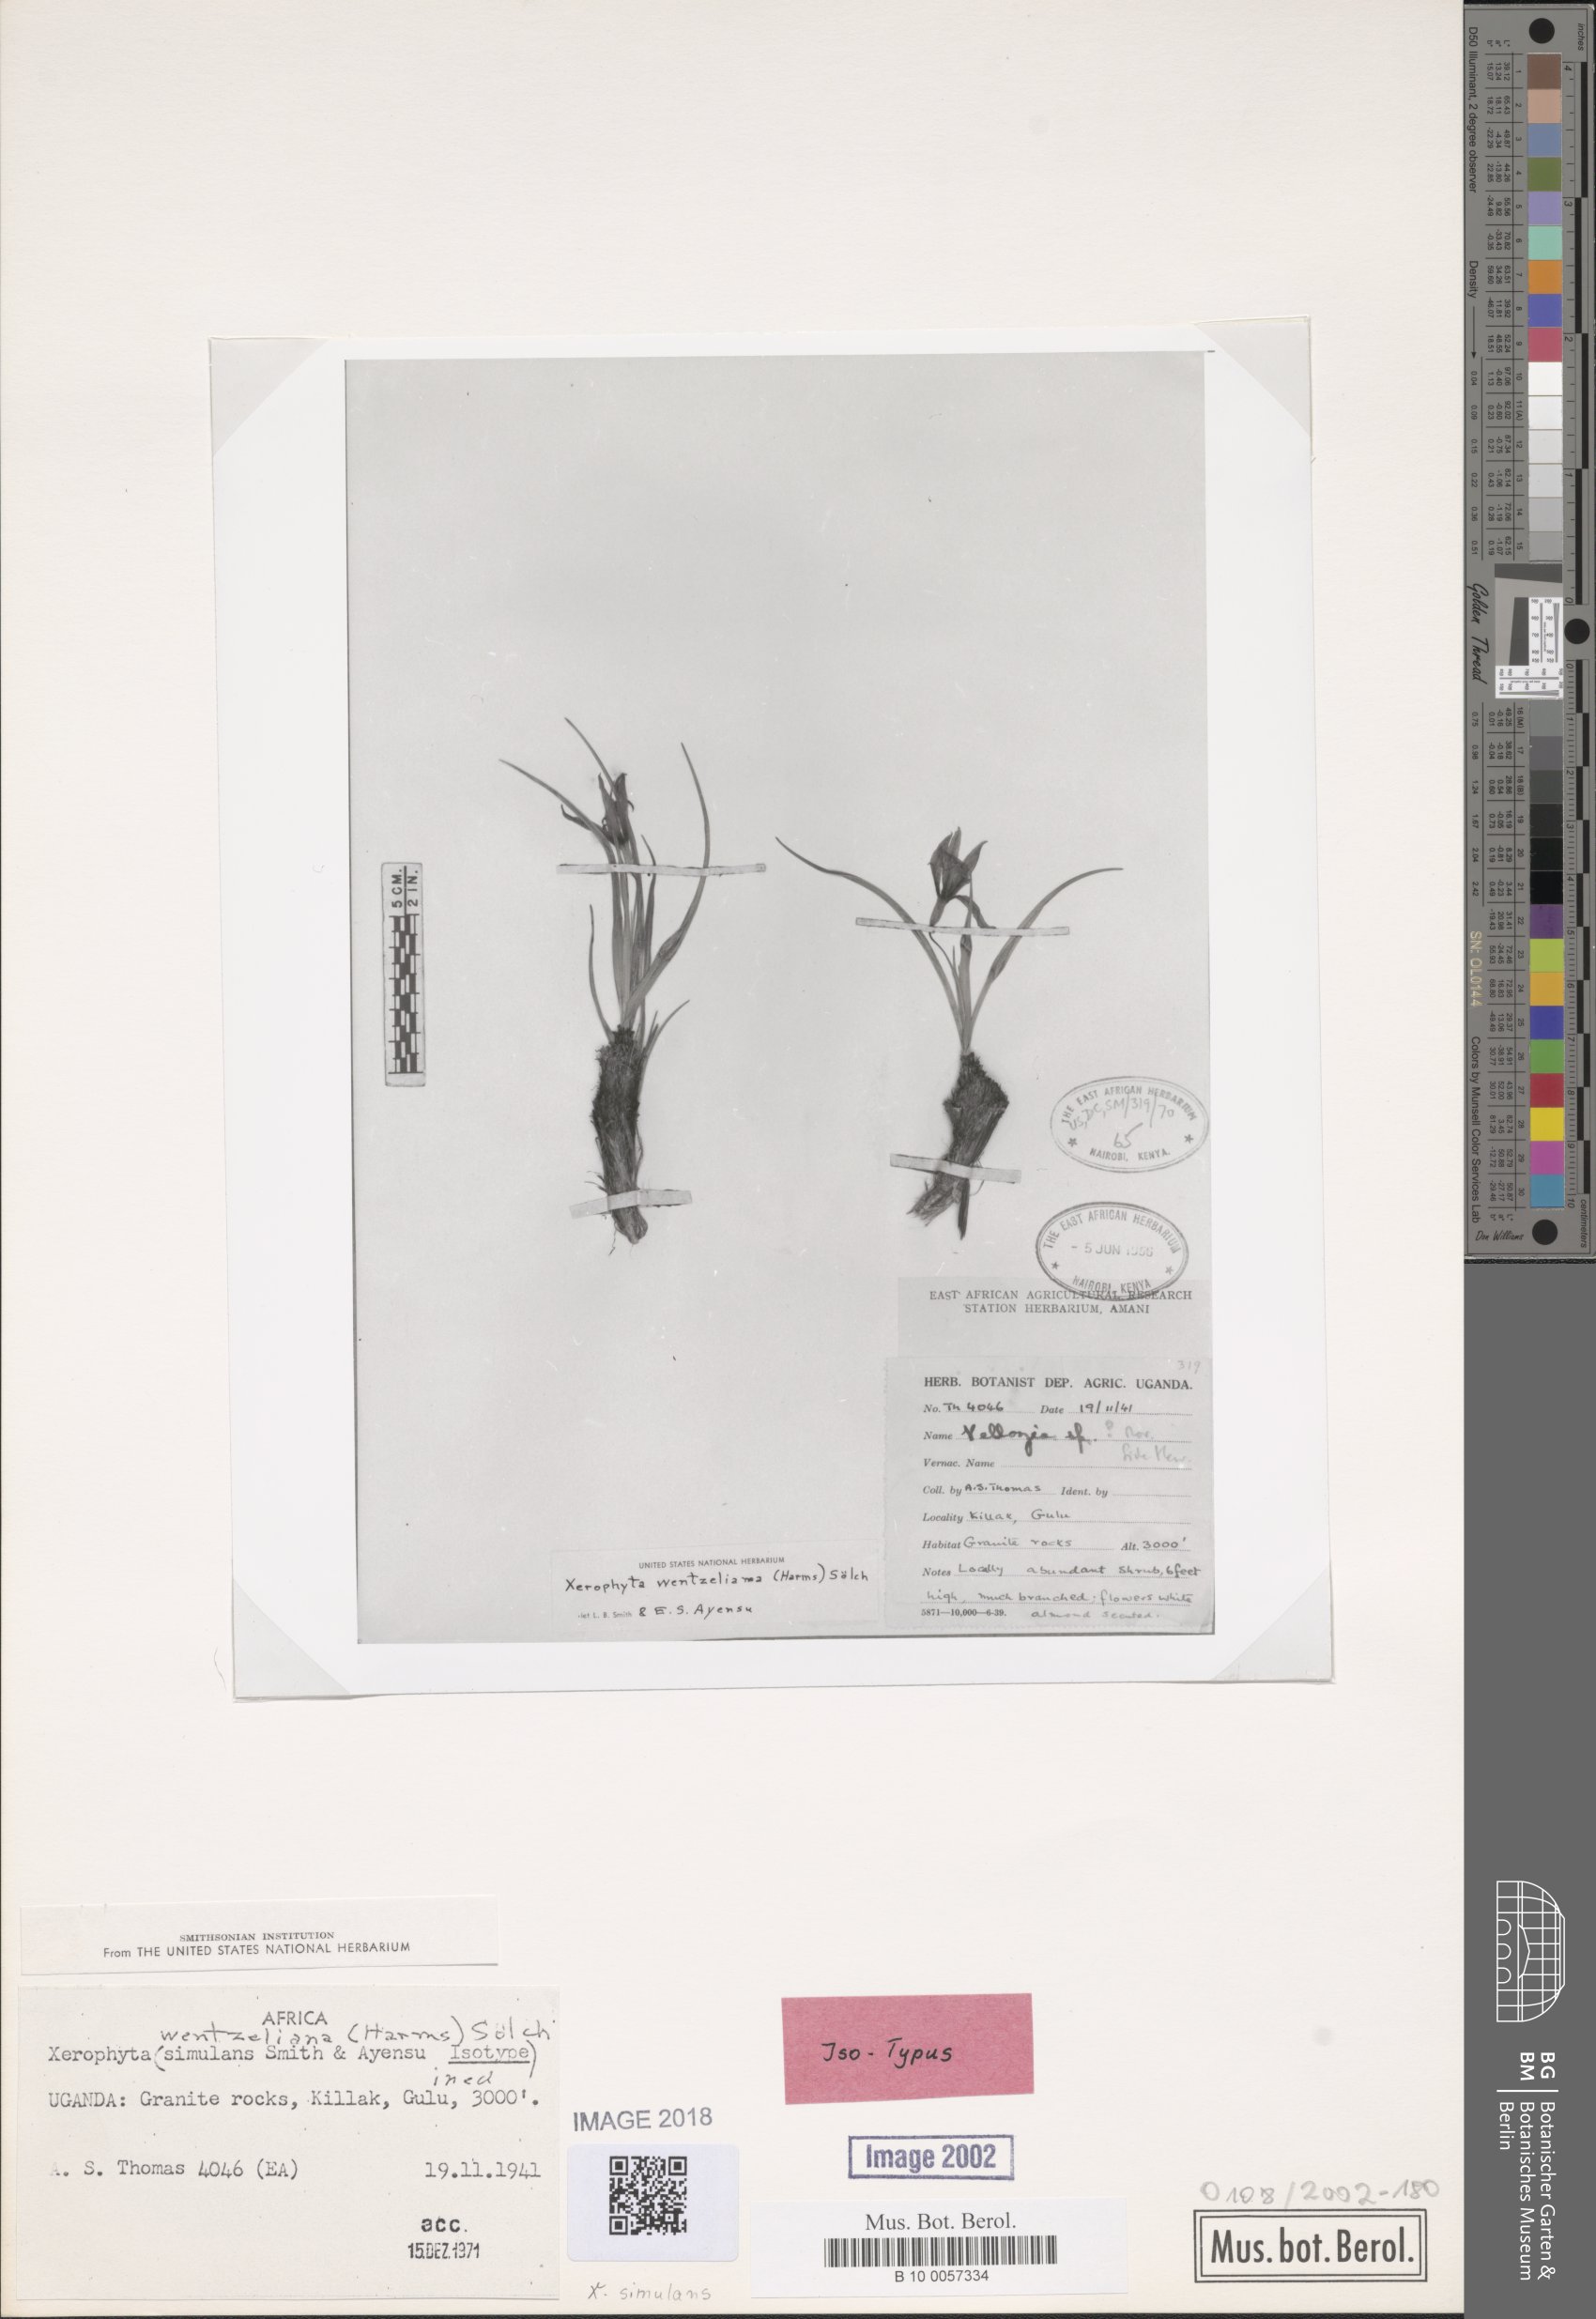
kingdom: Plantae
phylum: Tracheophyta
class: Liliopsida
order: Pandanales
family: Velloziaceae
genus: Xerophyta
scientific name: Xerophyta simulans
